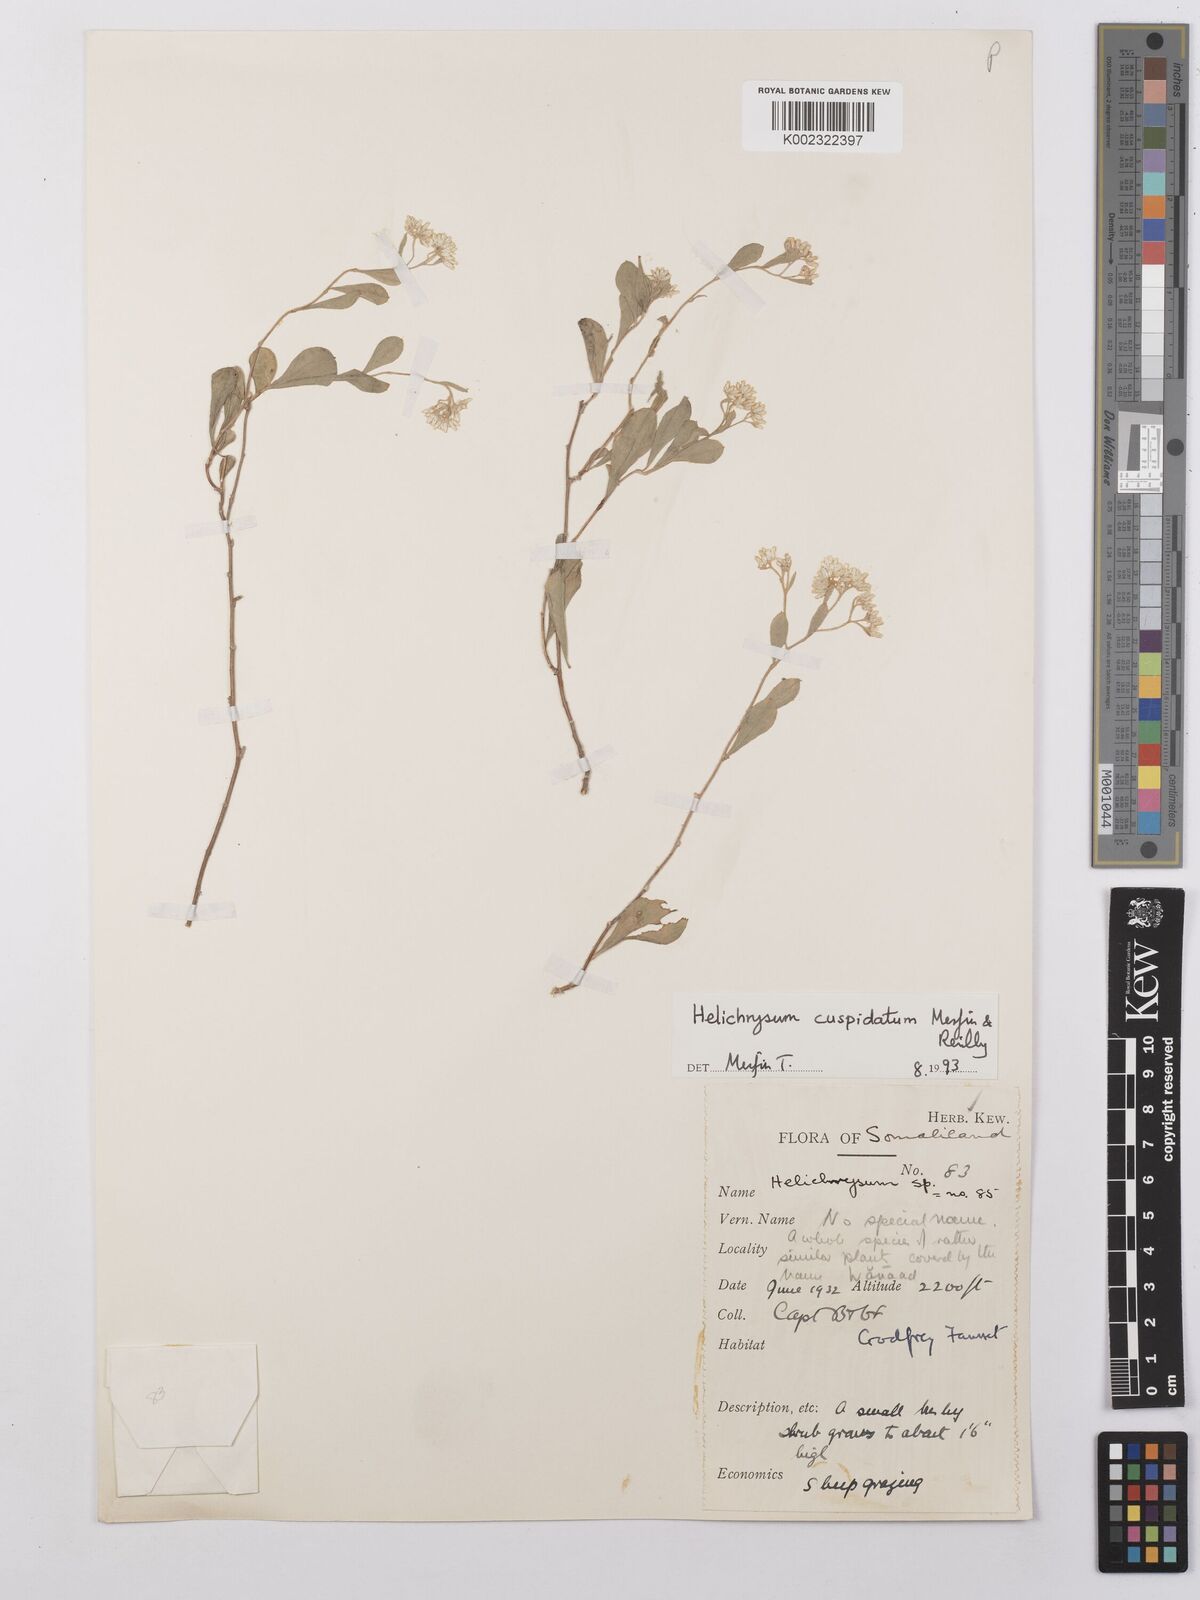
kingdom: Plantae
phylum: Tracheophyta
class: Magnoliopsida
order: Asterales
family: Asteraceae
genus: Helichrysum
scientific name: Helichrysum cuspidatum
